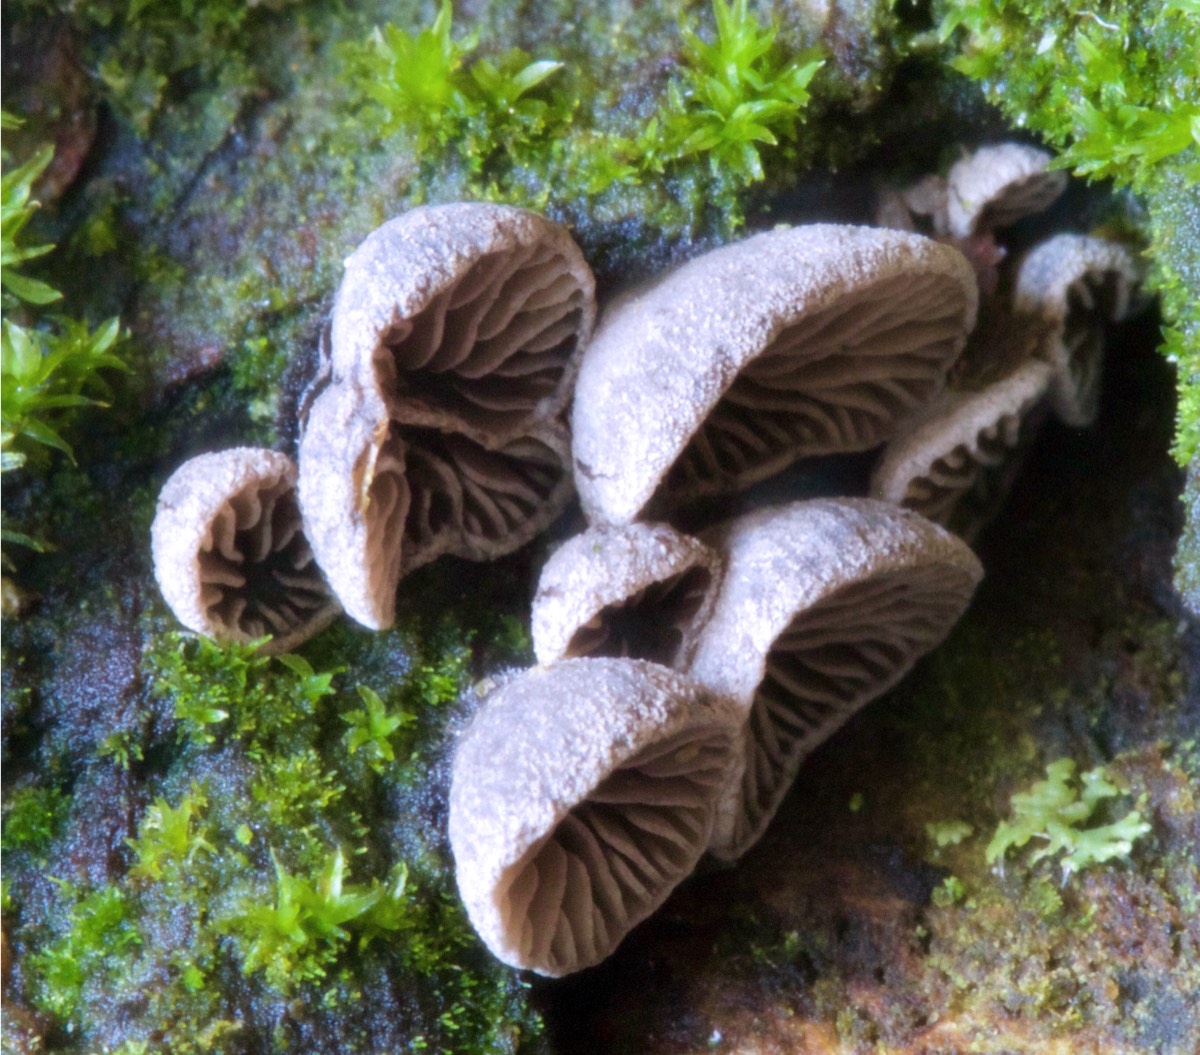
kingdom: Fungi
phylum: Basidiomycota
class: Agaricomycetes
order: Agaricales
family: Pleurotaceae
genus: Resupinatus
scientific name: Resupinatus trichotis
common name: mørkfiltet barkhat
